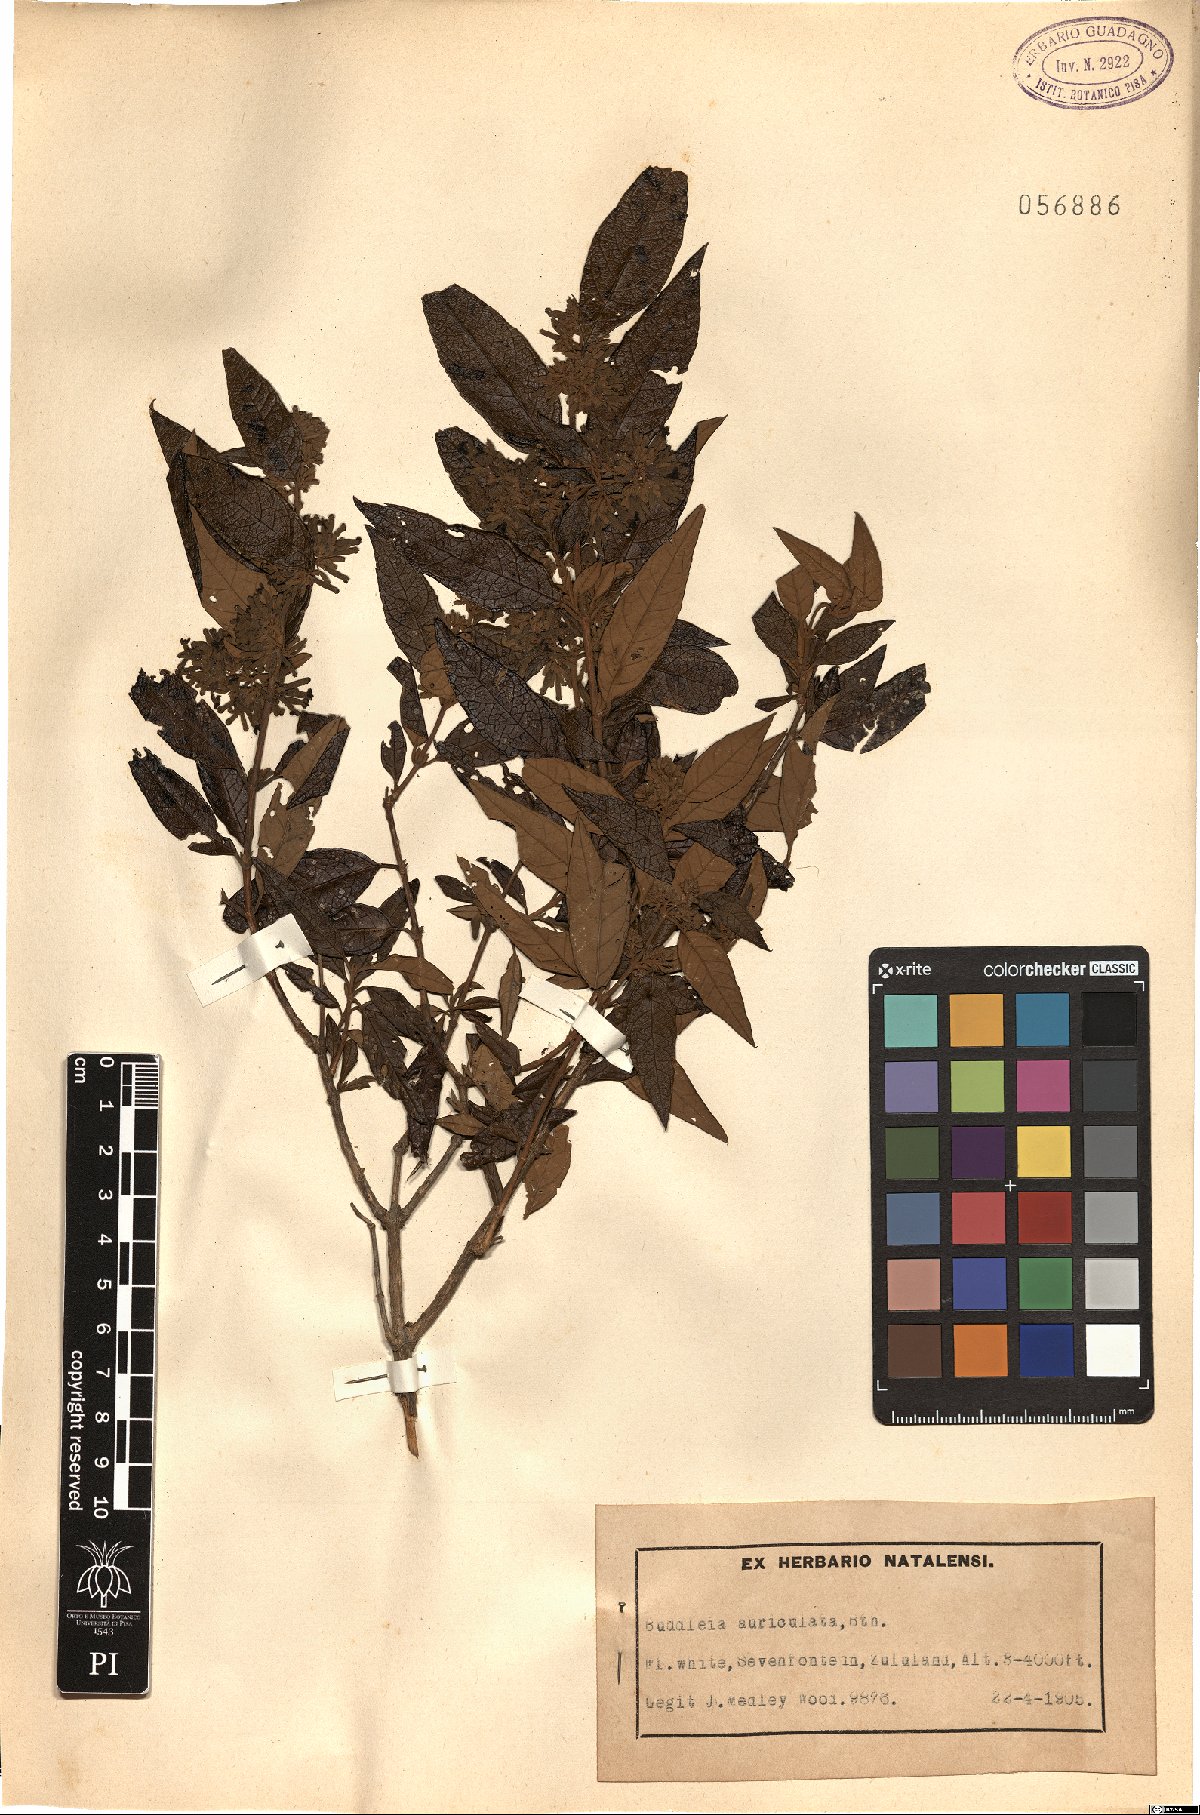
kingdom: Plantae
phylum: Tracheophyta
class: Magnoliopsida
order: Lamiales
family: Scrophulariaceae
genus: Buddleja
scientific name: Buddleja auriculata
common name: Weeping sagewood
